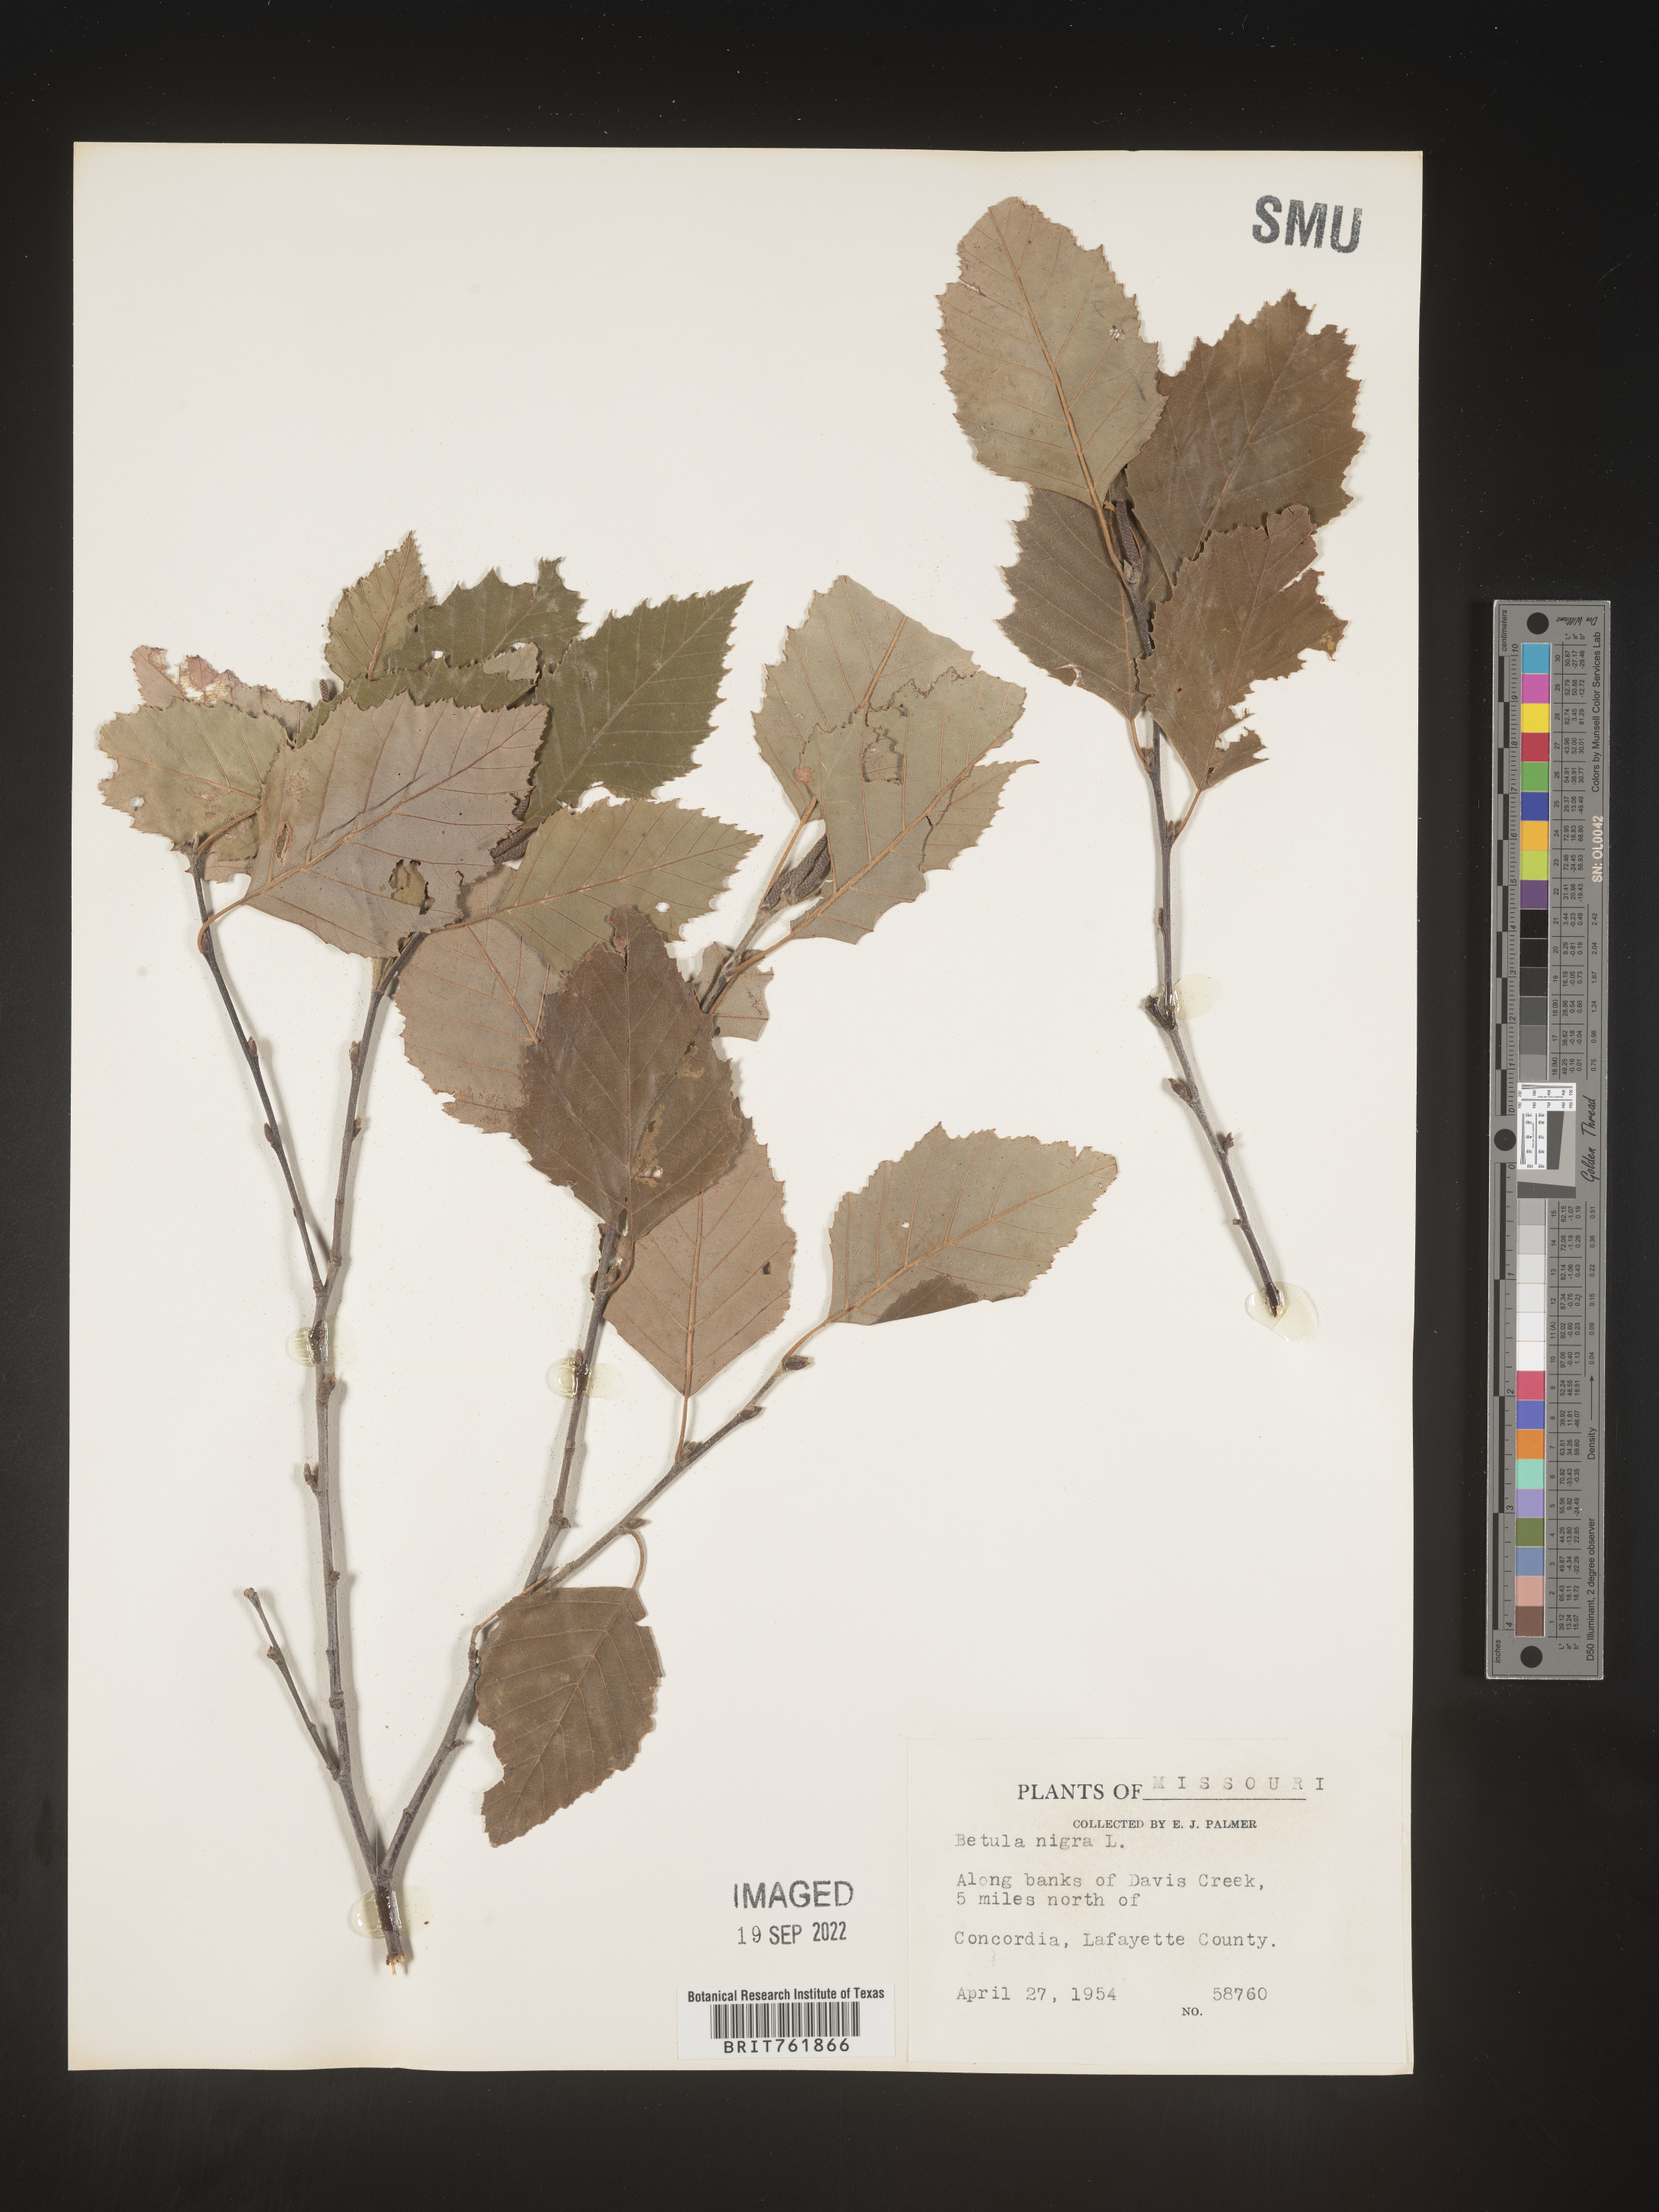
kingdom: Plantae
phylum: Tracheophyta
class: Magnoliopsida
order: Fagales
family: Betulaceae
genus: Betula
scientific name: Betula nigra
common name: Black birch
